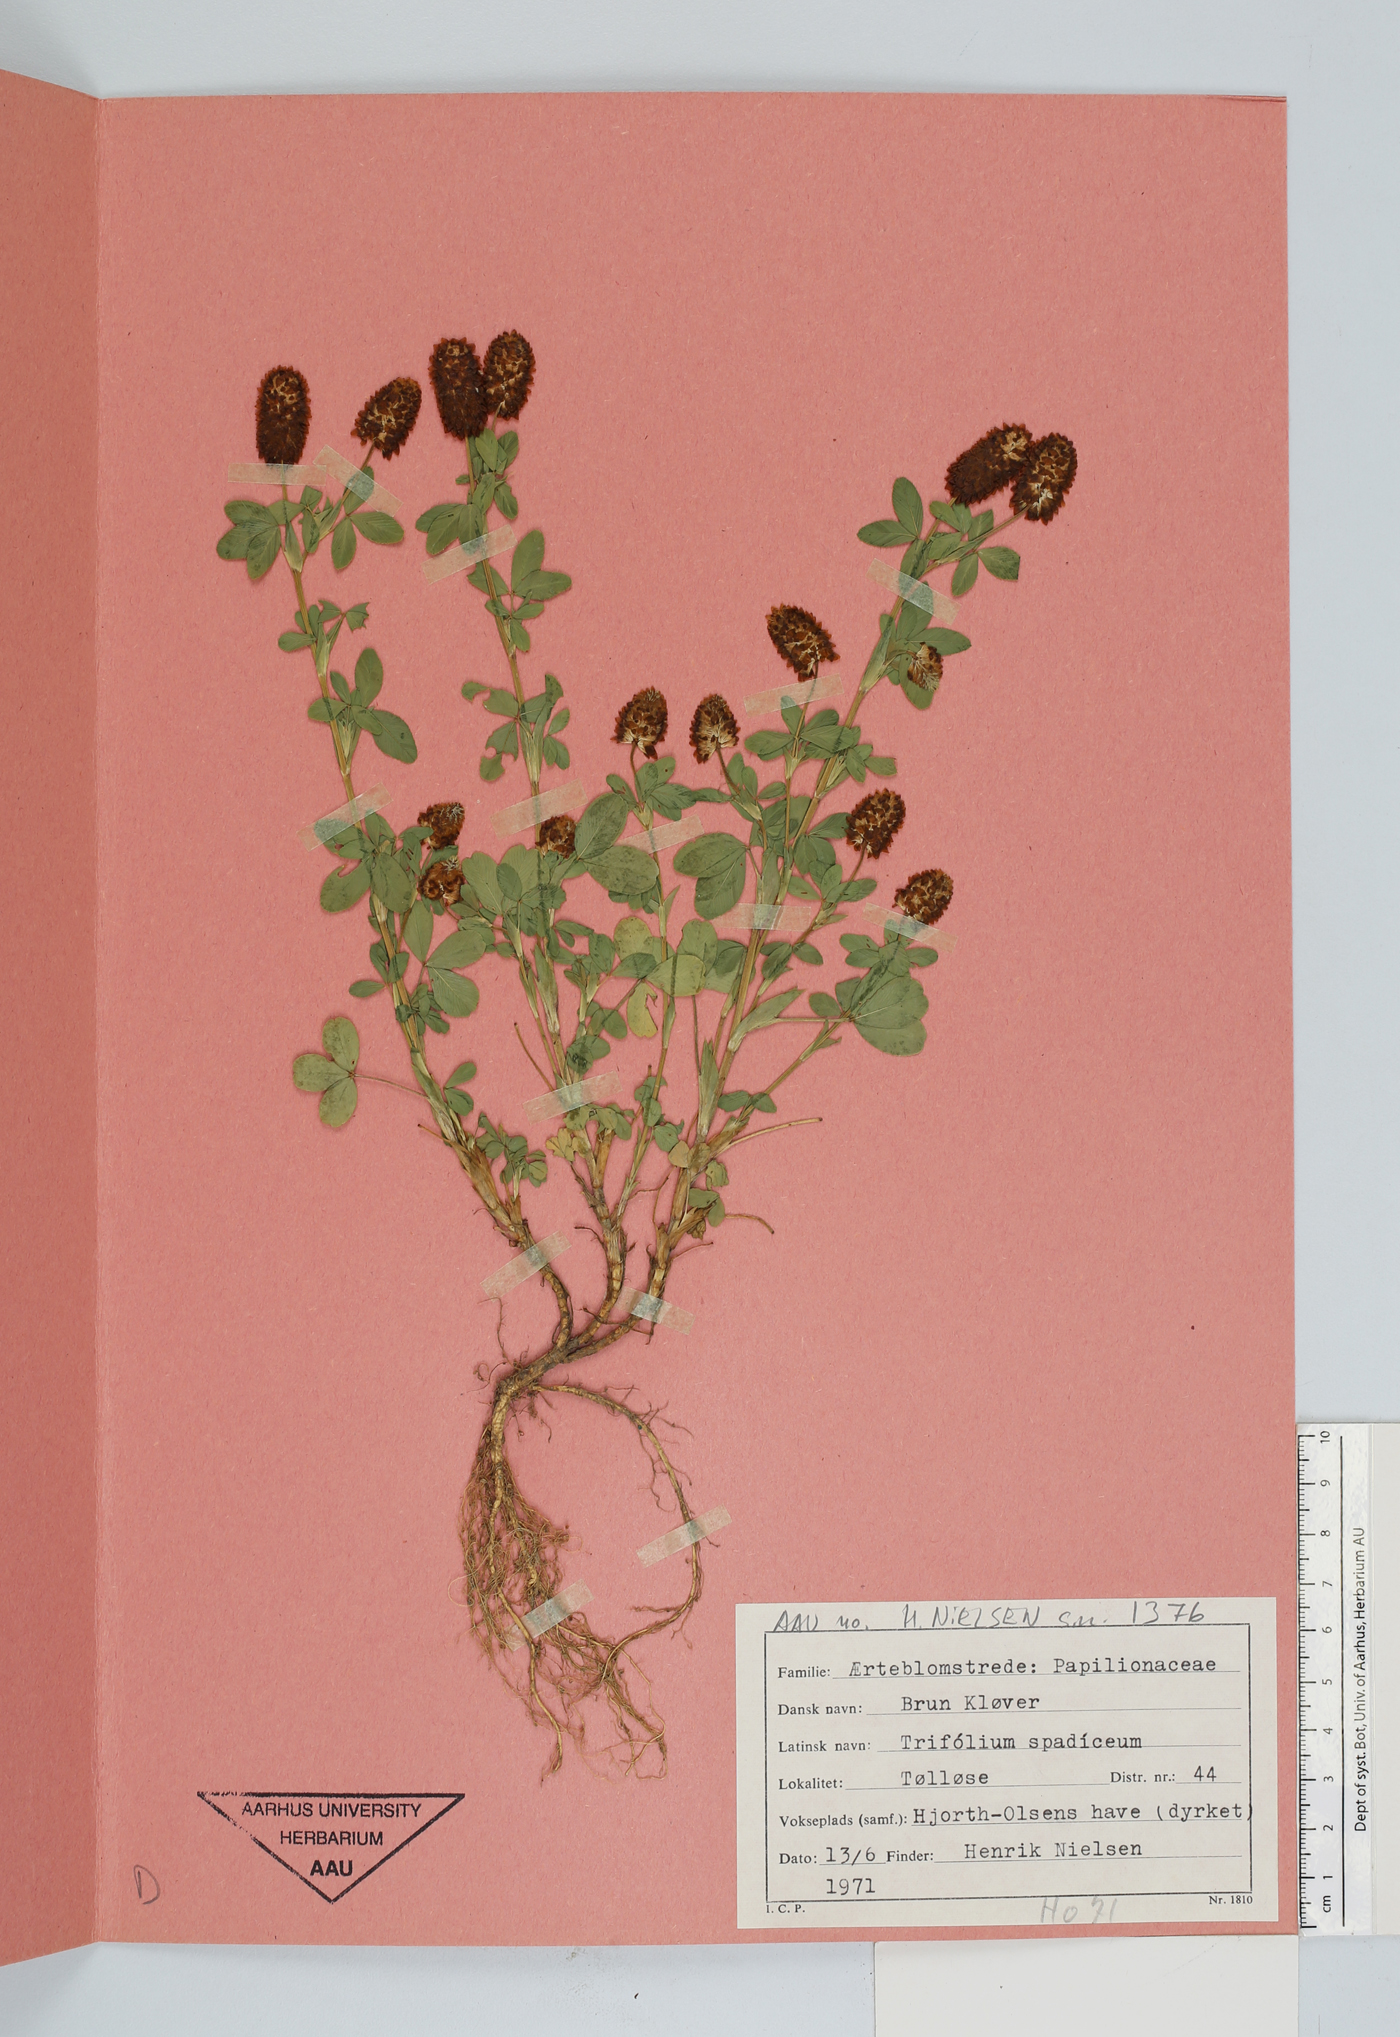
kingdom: Plantae
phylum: Tracheophyta
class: Magnoliopsida
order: Fabales
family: Fabaceae
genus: Trifolium
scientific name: Trifolium spadiceum
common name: Brown moor clover
